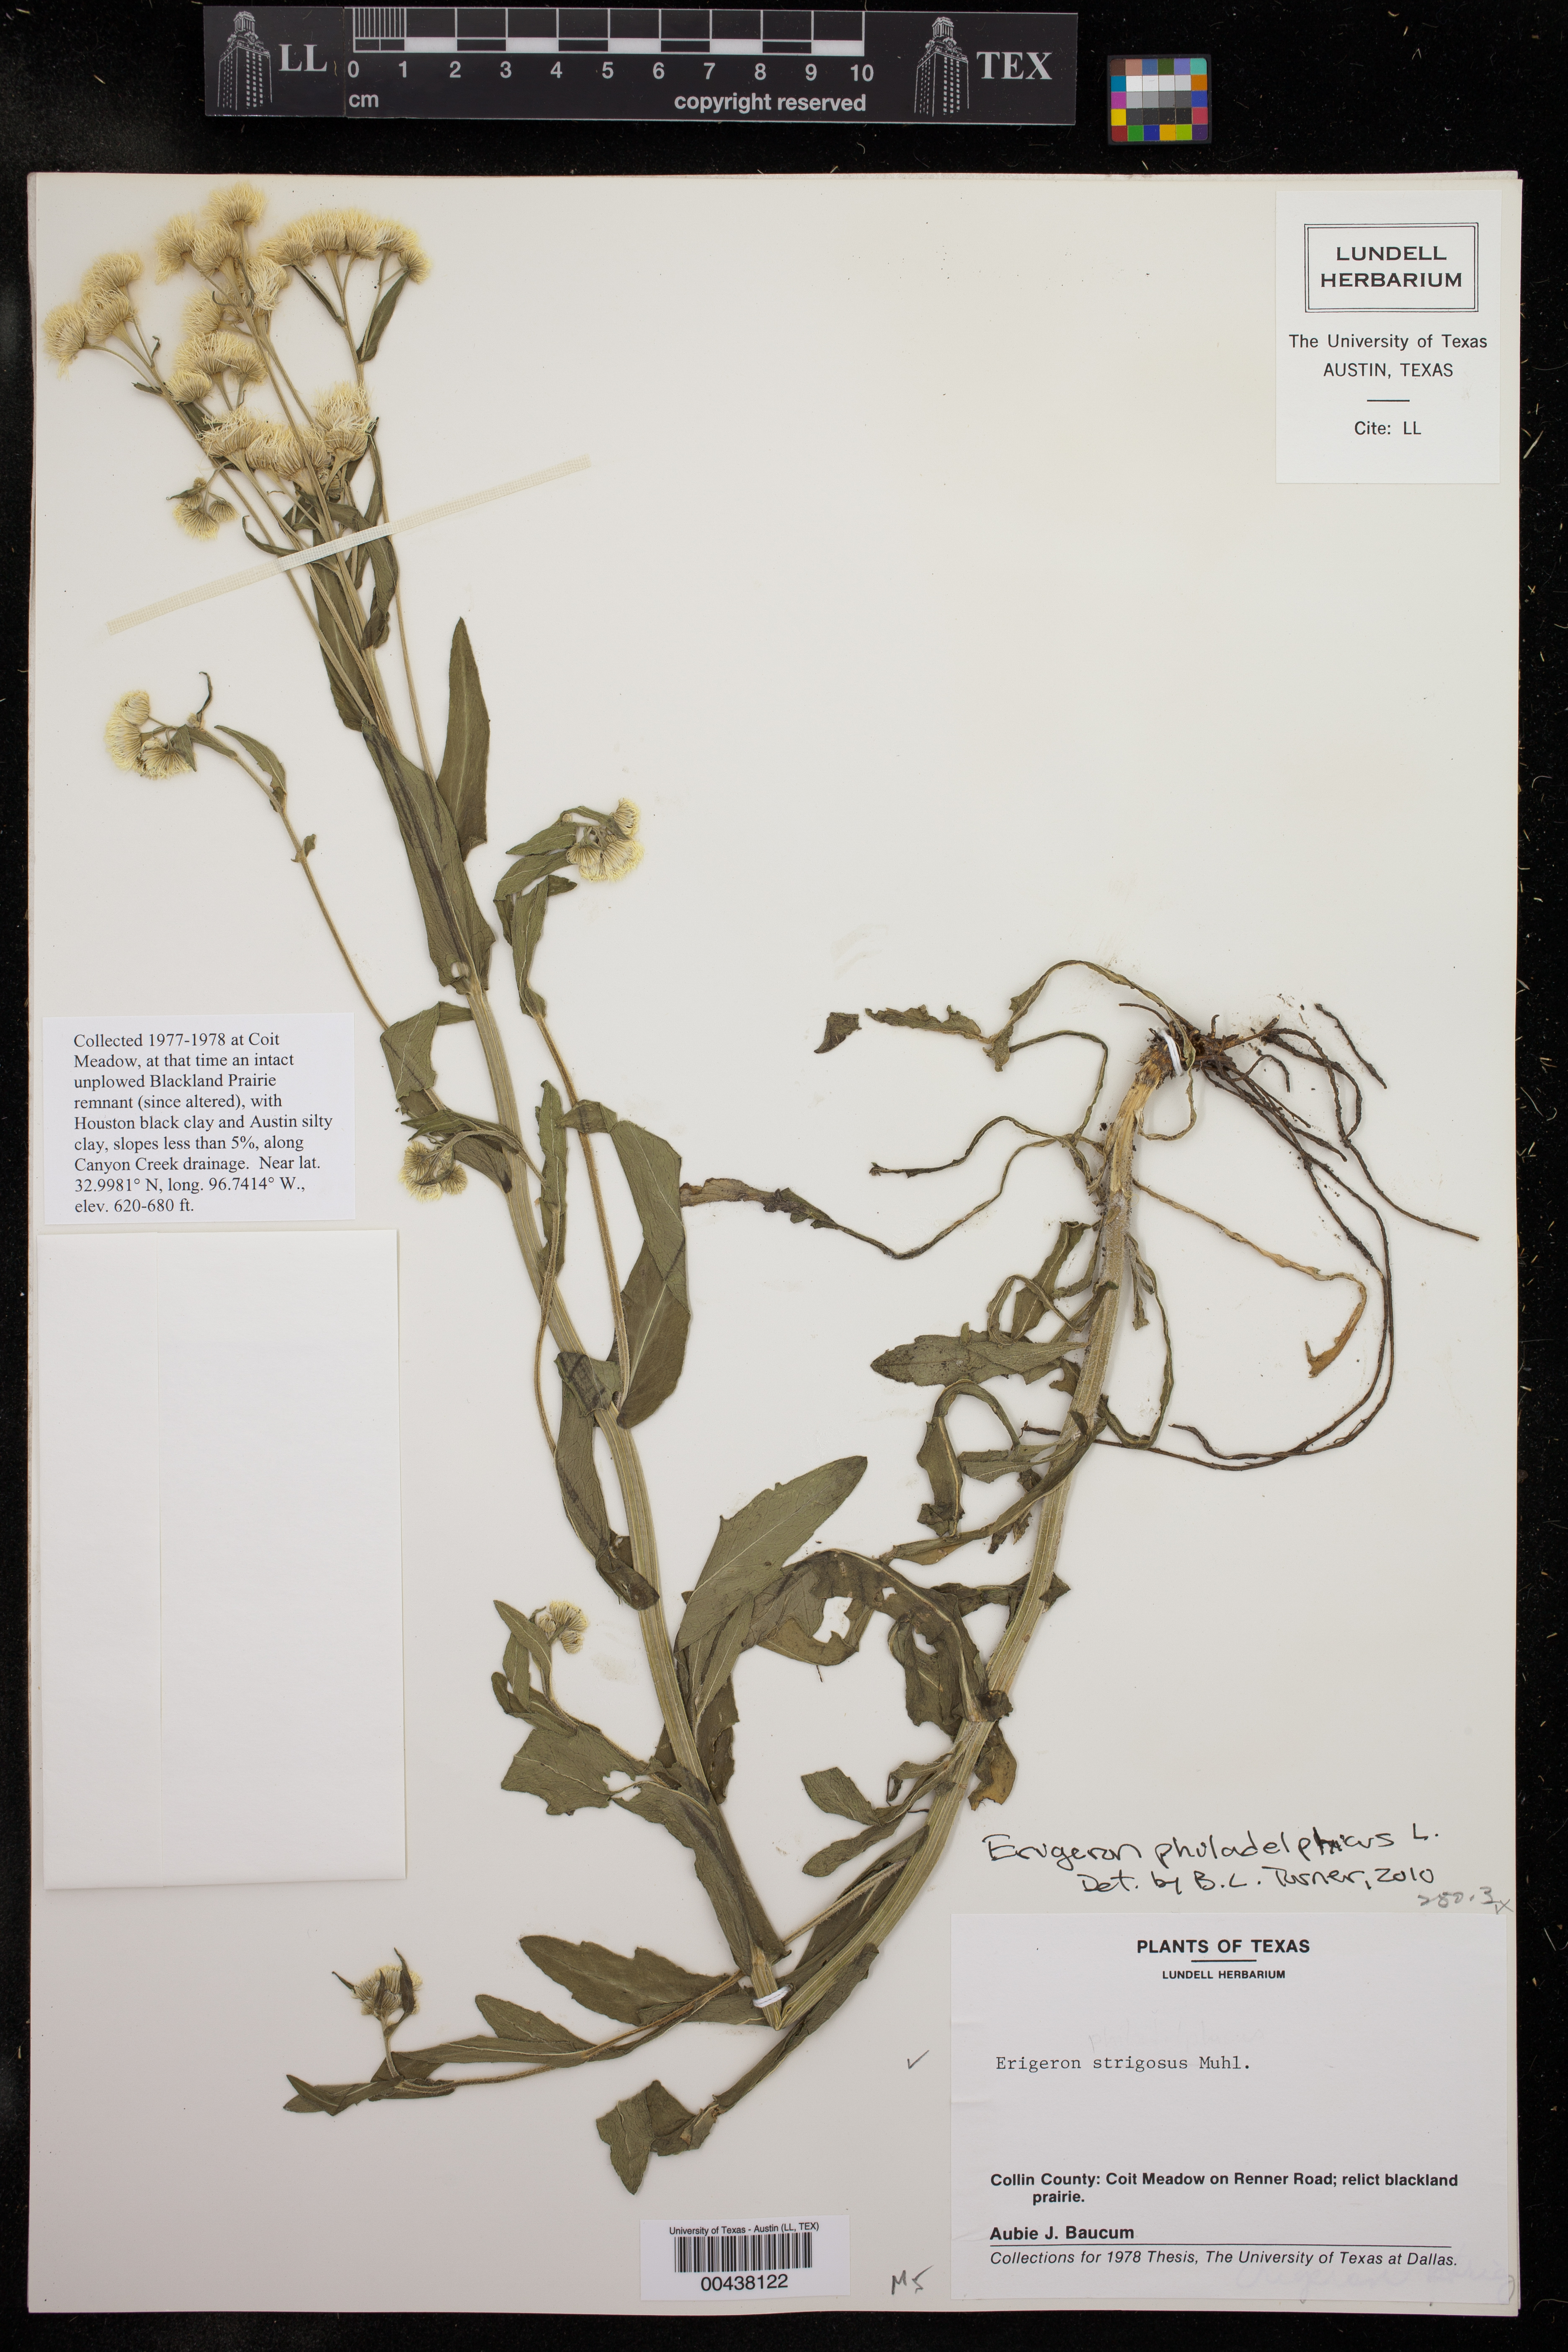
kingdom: Plantae
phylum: Tracheophyta
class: Magnoliopsida
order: Asterales
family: Asteraceae
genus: Erigeron
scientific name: Erigeron philadelphicus
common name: Robin's-plantain
